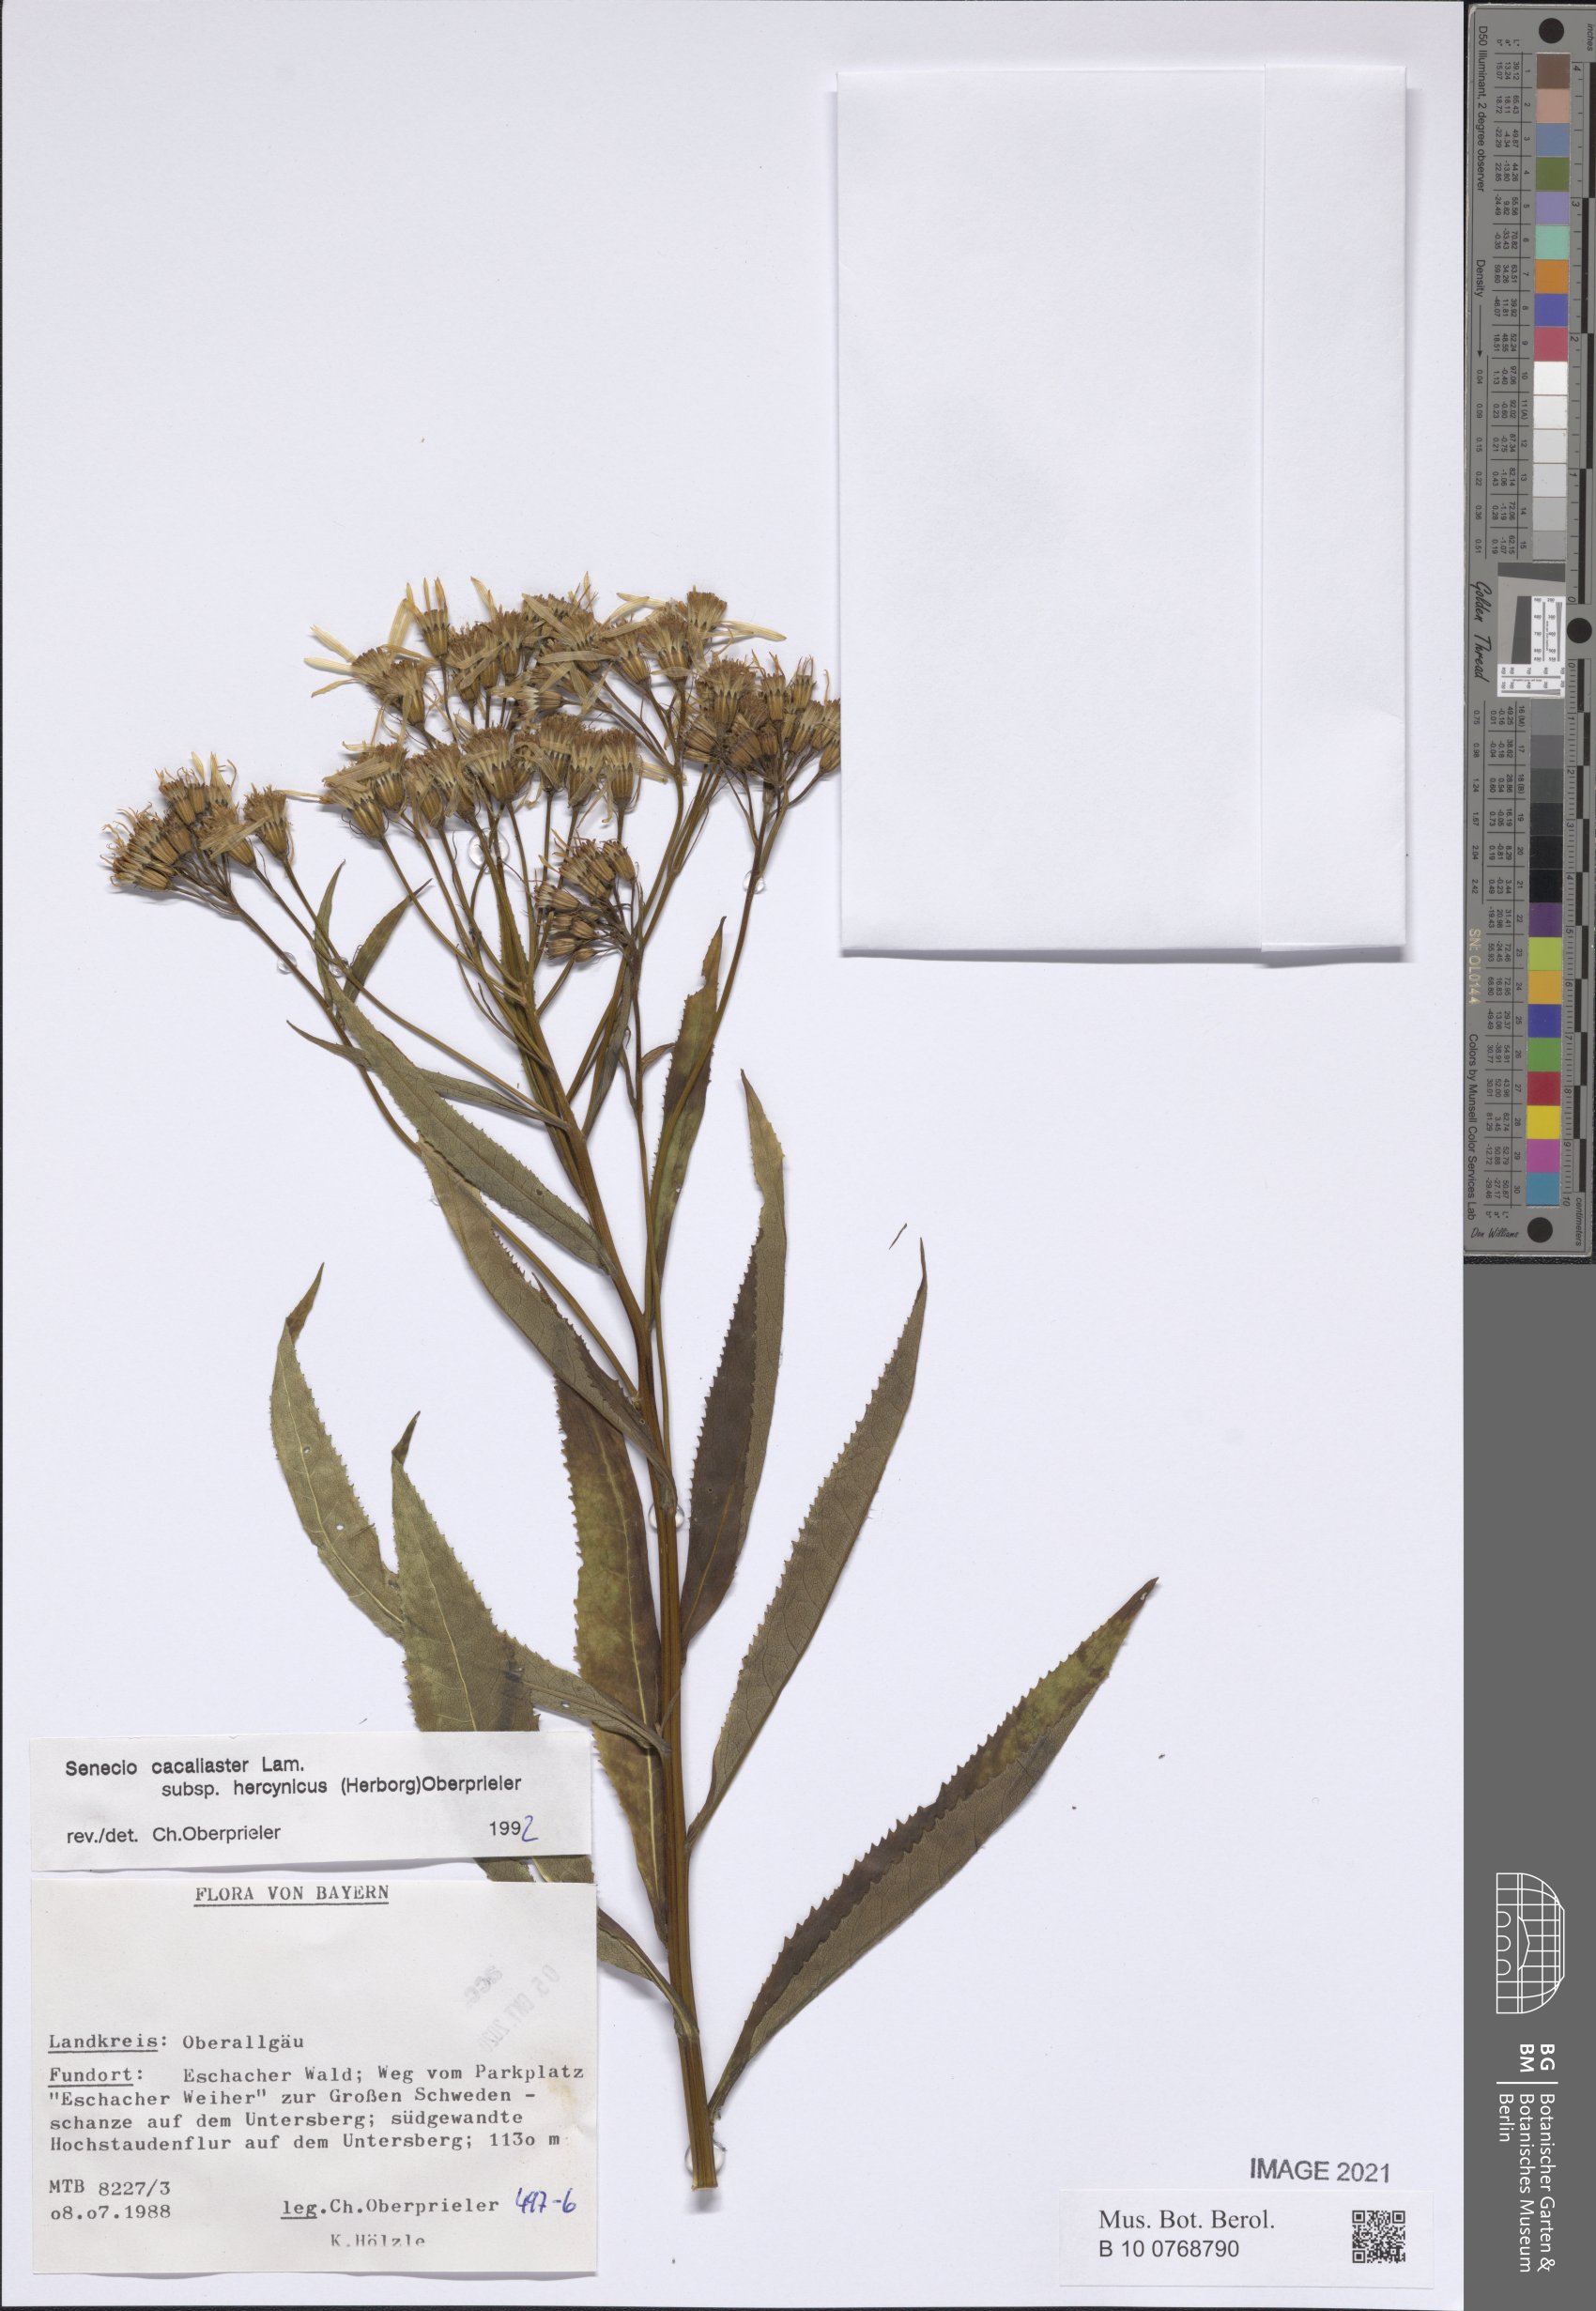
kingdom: Plantae
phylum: Tracheophyta
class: Magnoliopsida
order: Asterales
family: Asteraceae
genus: Senecio
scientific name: Senecio hercynicus
